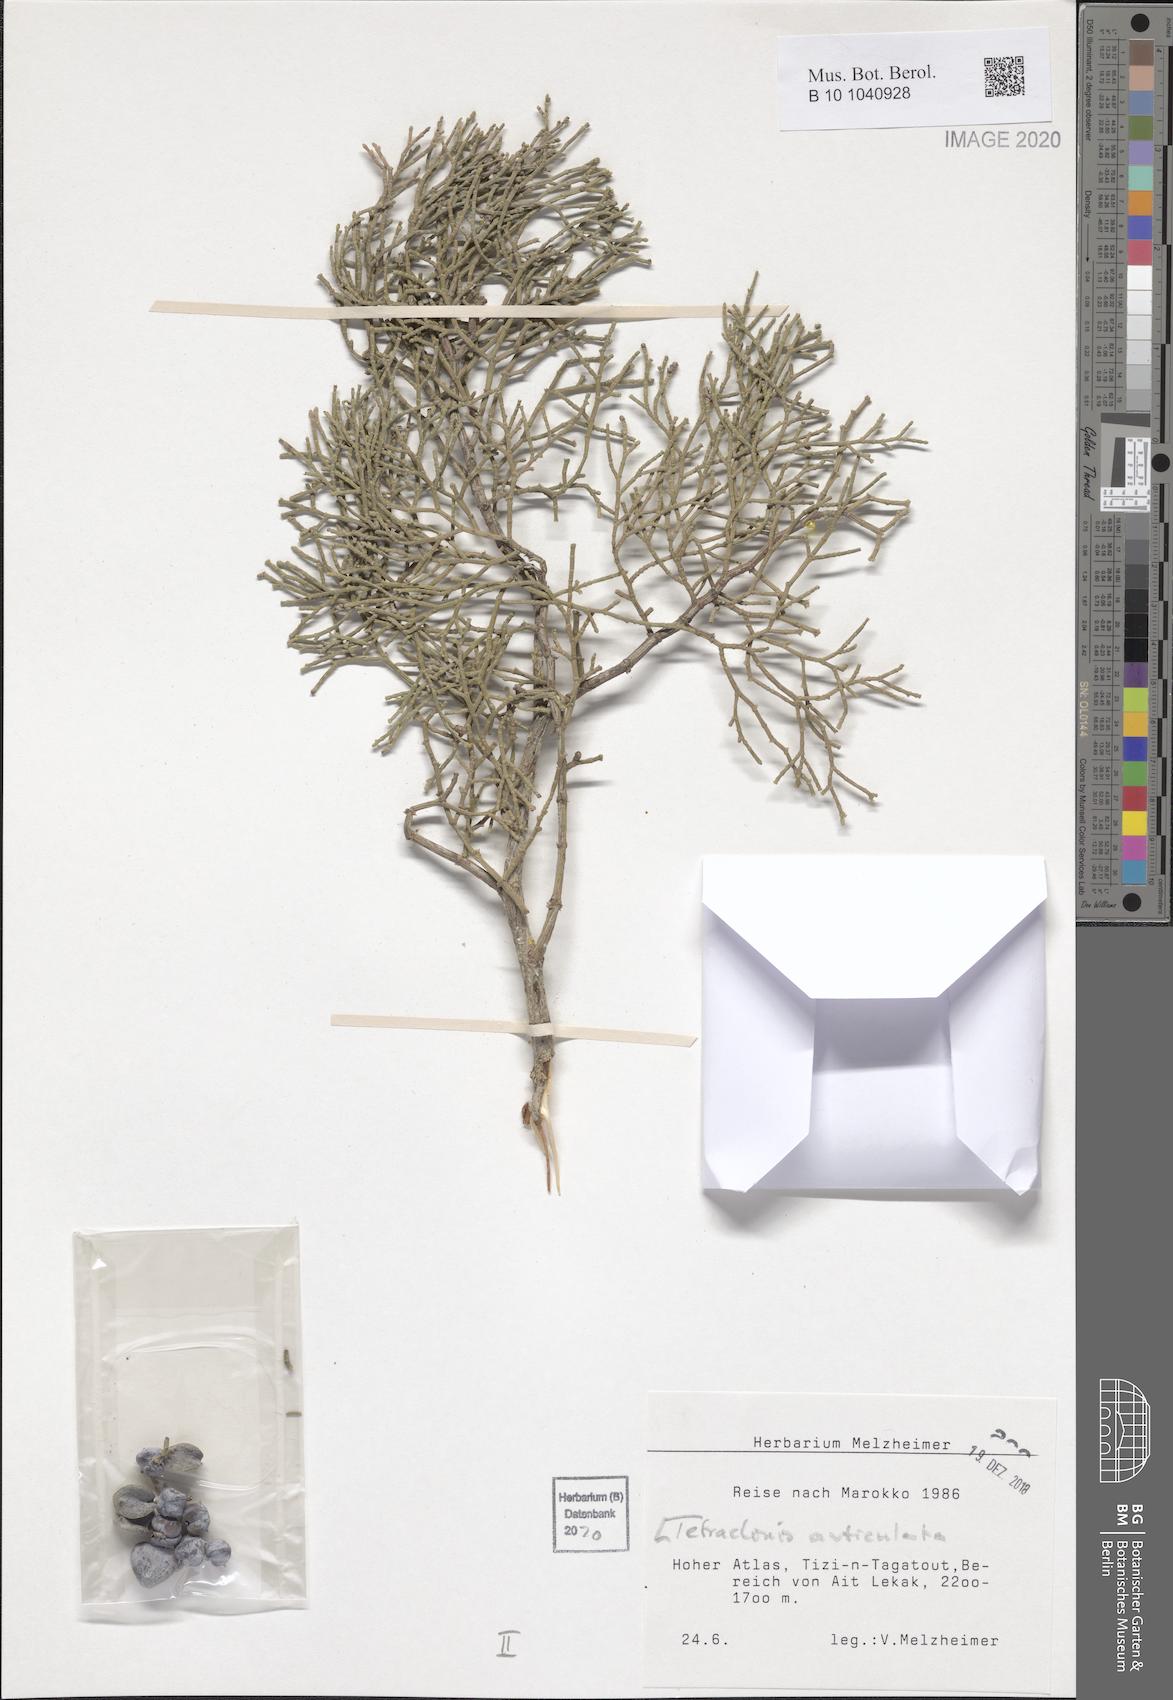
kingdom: Plantae
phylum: Tracheophyta
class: Pinopsida
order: Pinales
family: Cupressaceae
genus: Tetraclinis
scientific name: Tetraclinis articulata
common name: Sandarac
